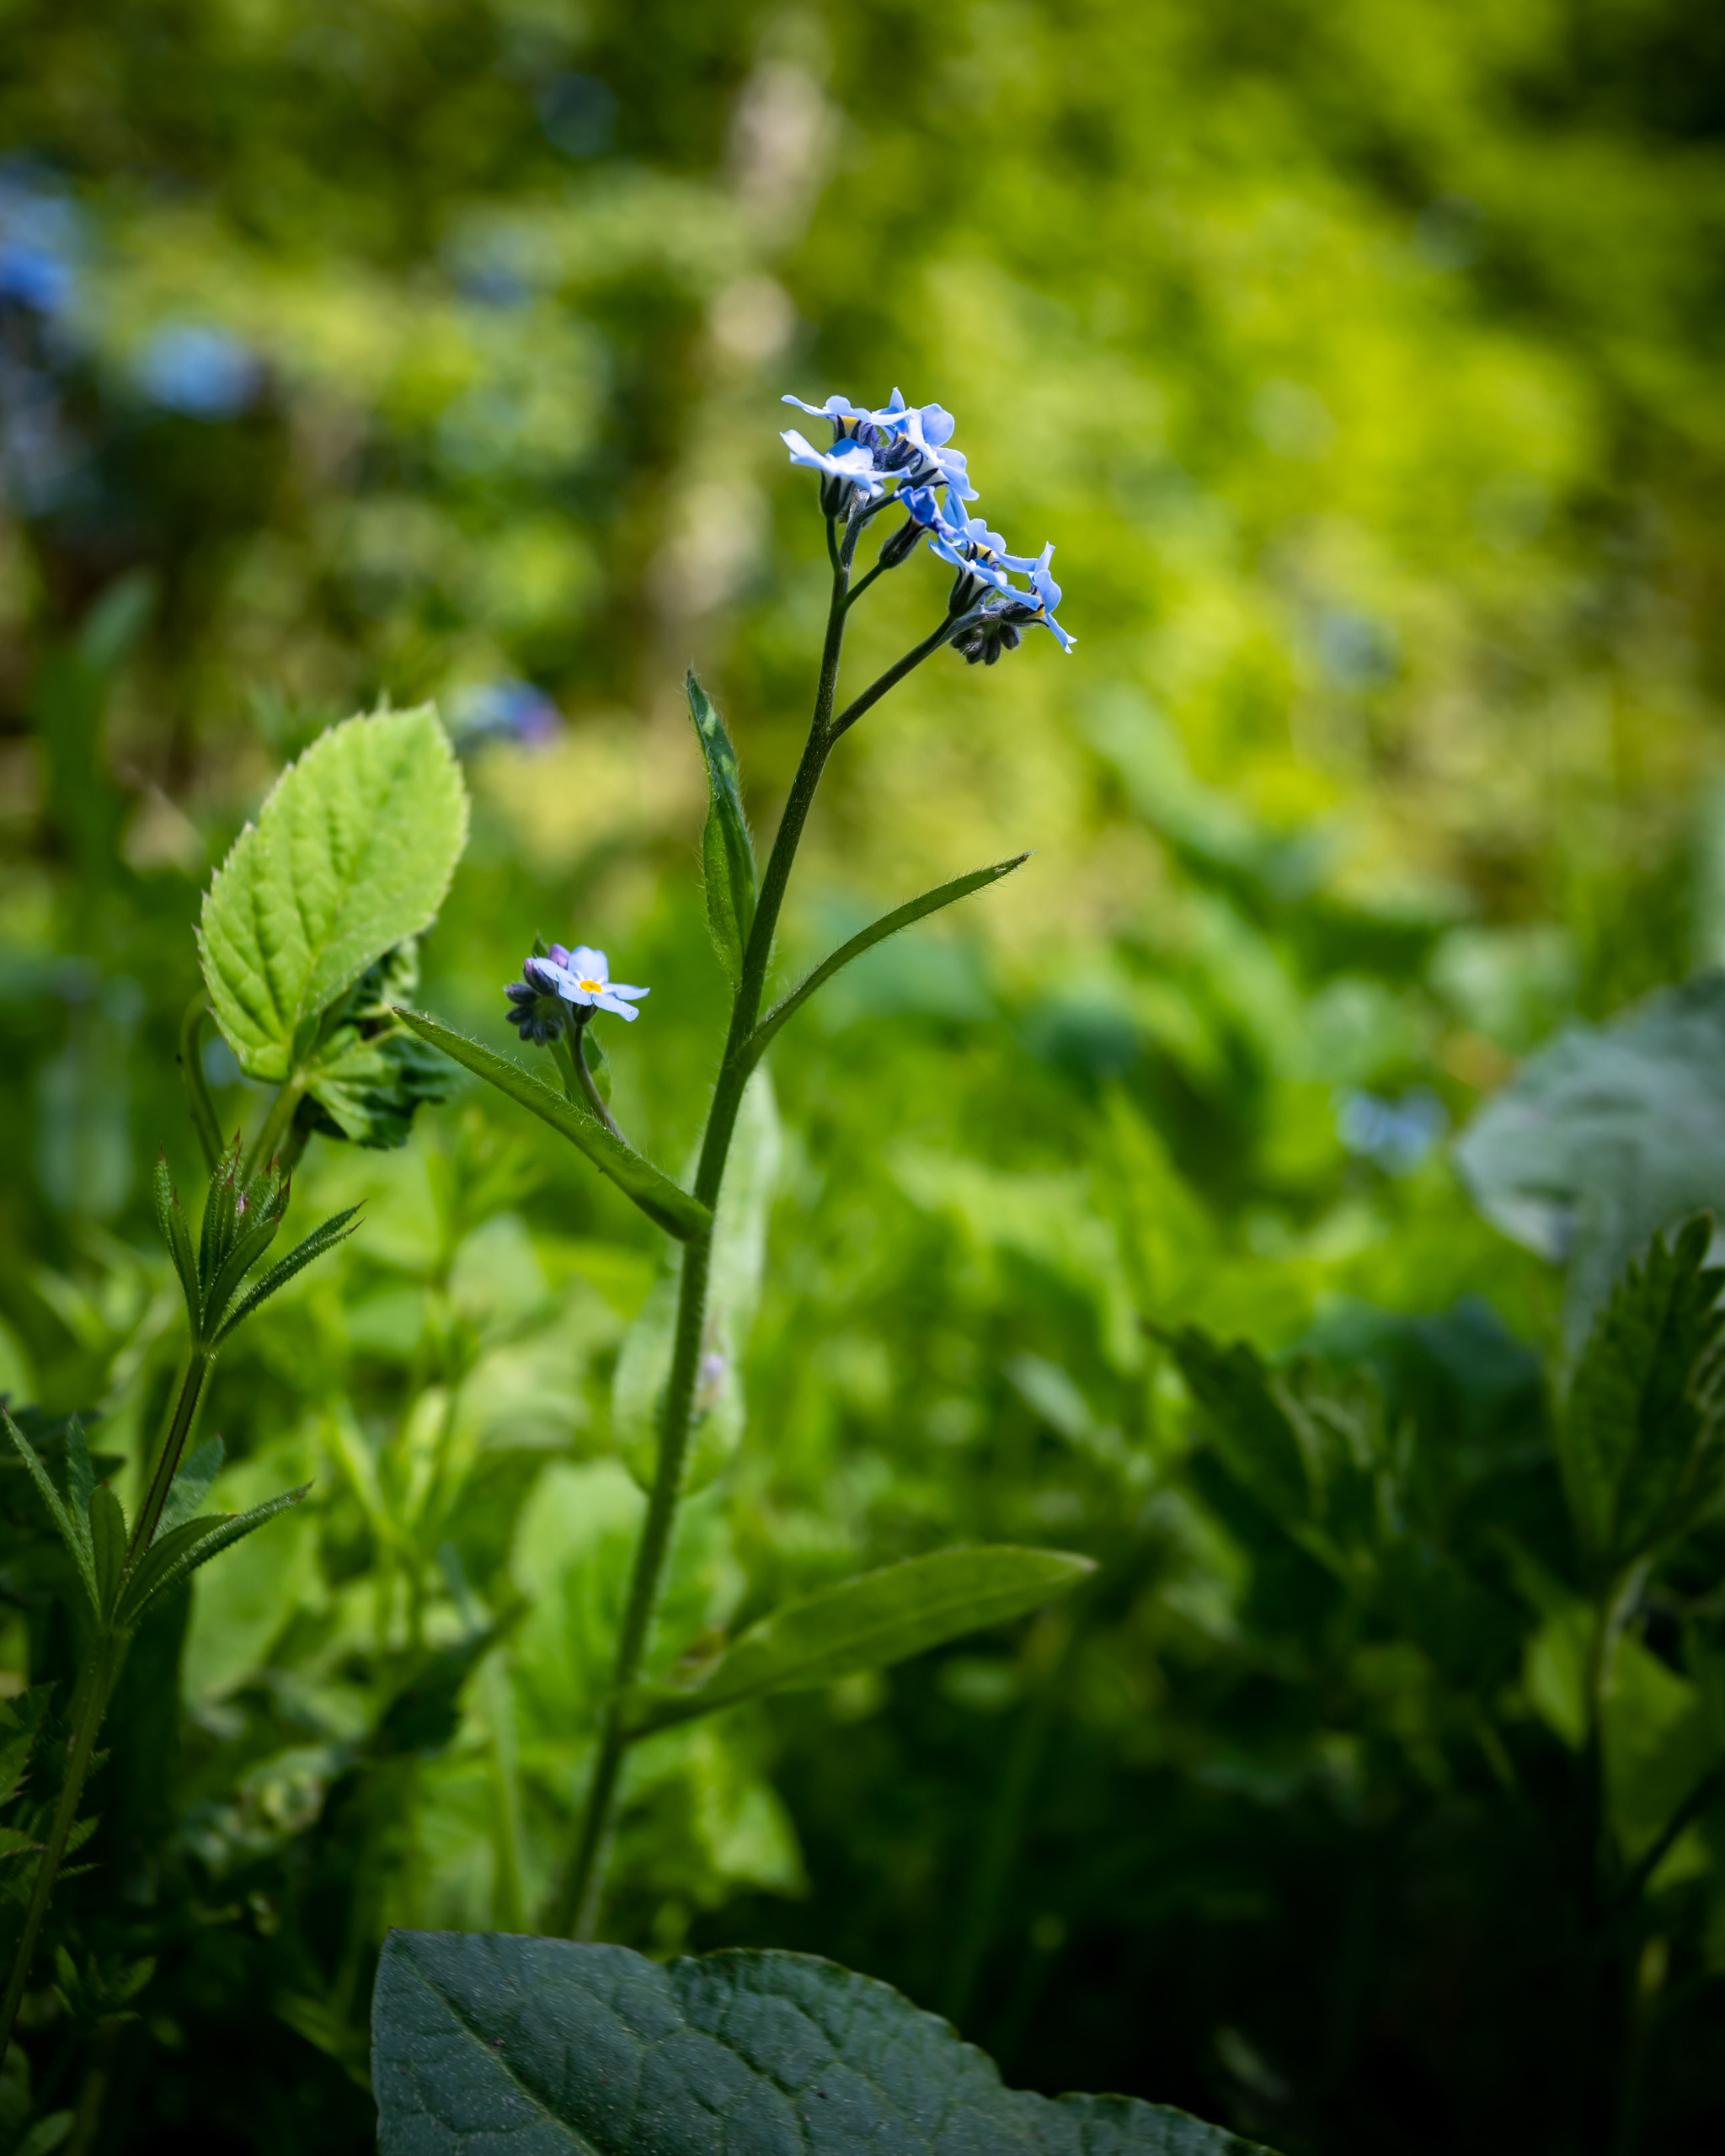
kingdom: Plantae
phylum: Tracheophyta
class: Magnoliopsida
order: Boraginales
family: Boraginaceae
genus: Myosotis
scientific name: Myosotis sylvatica
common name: Skov-forglemmigej
